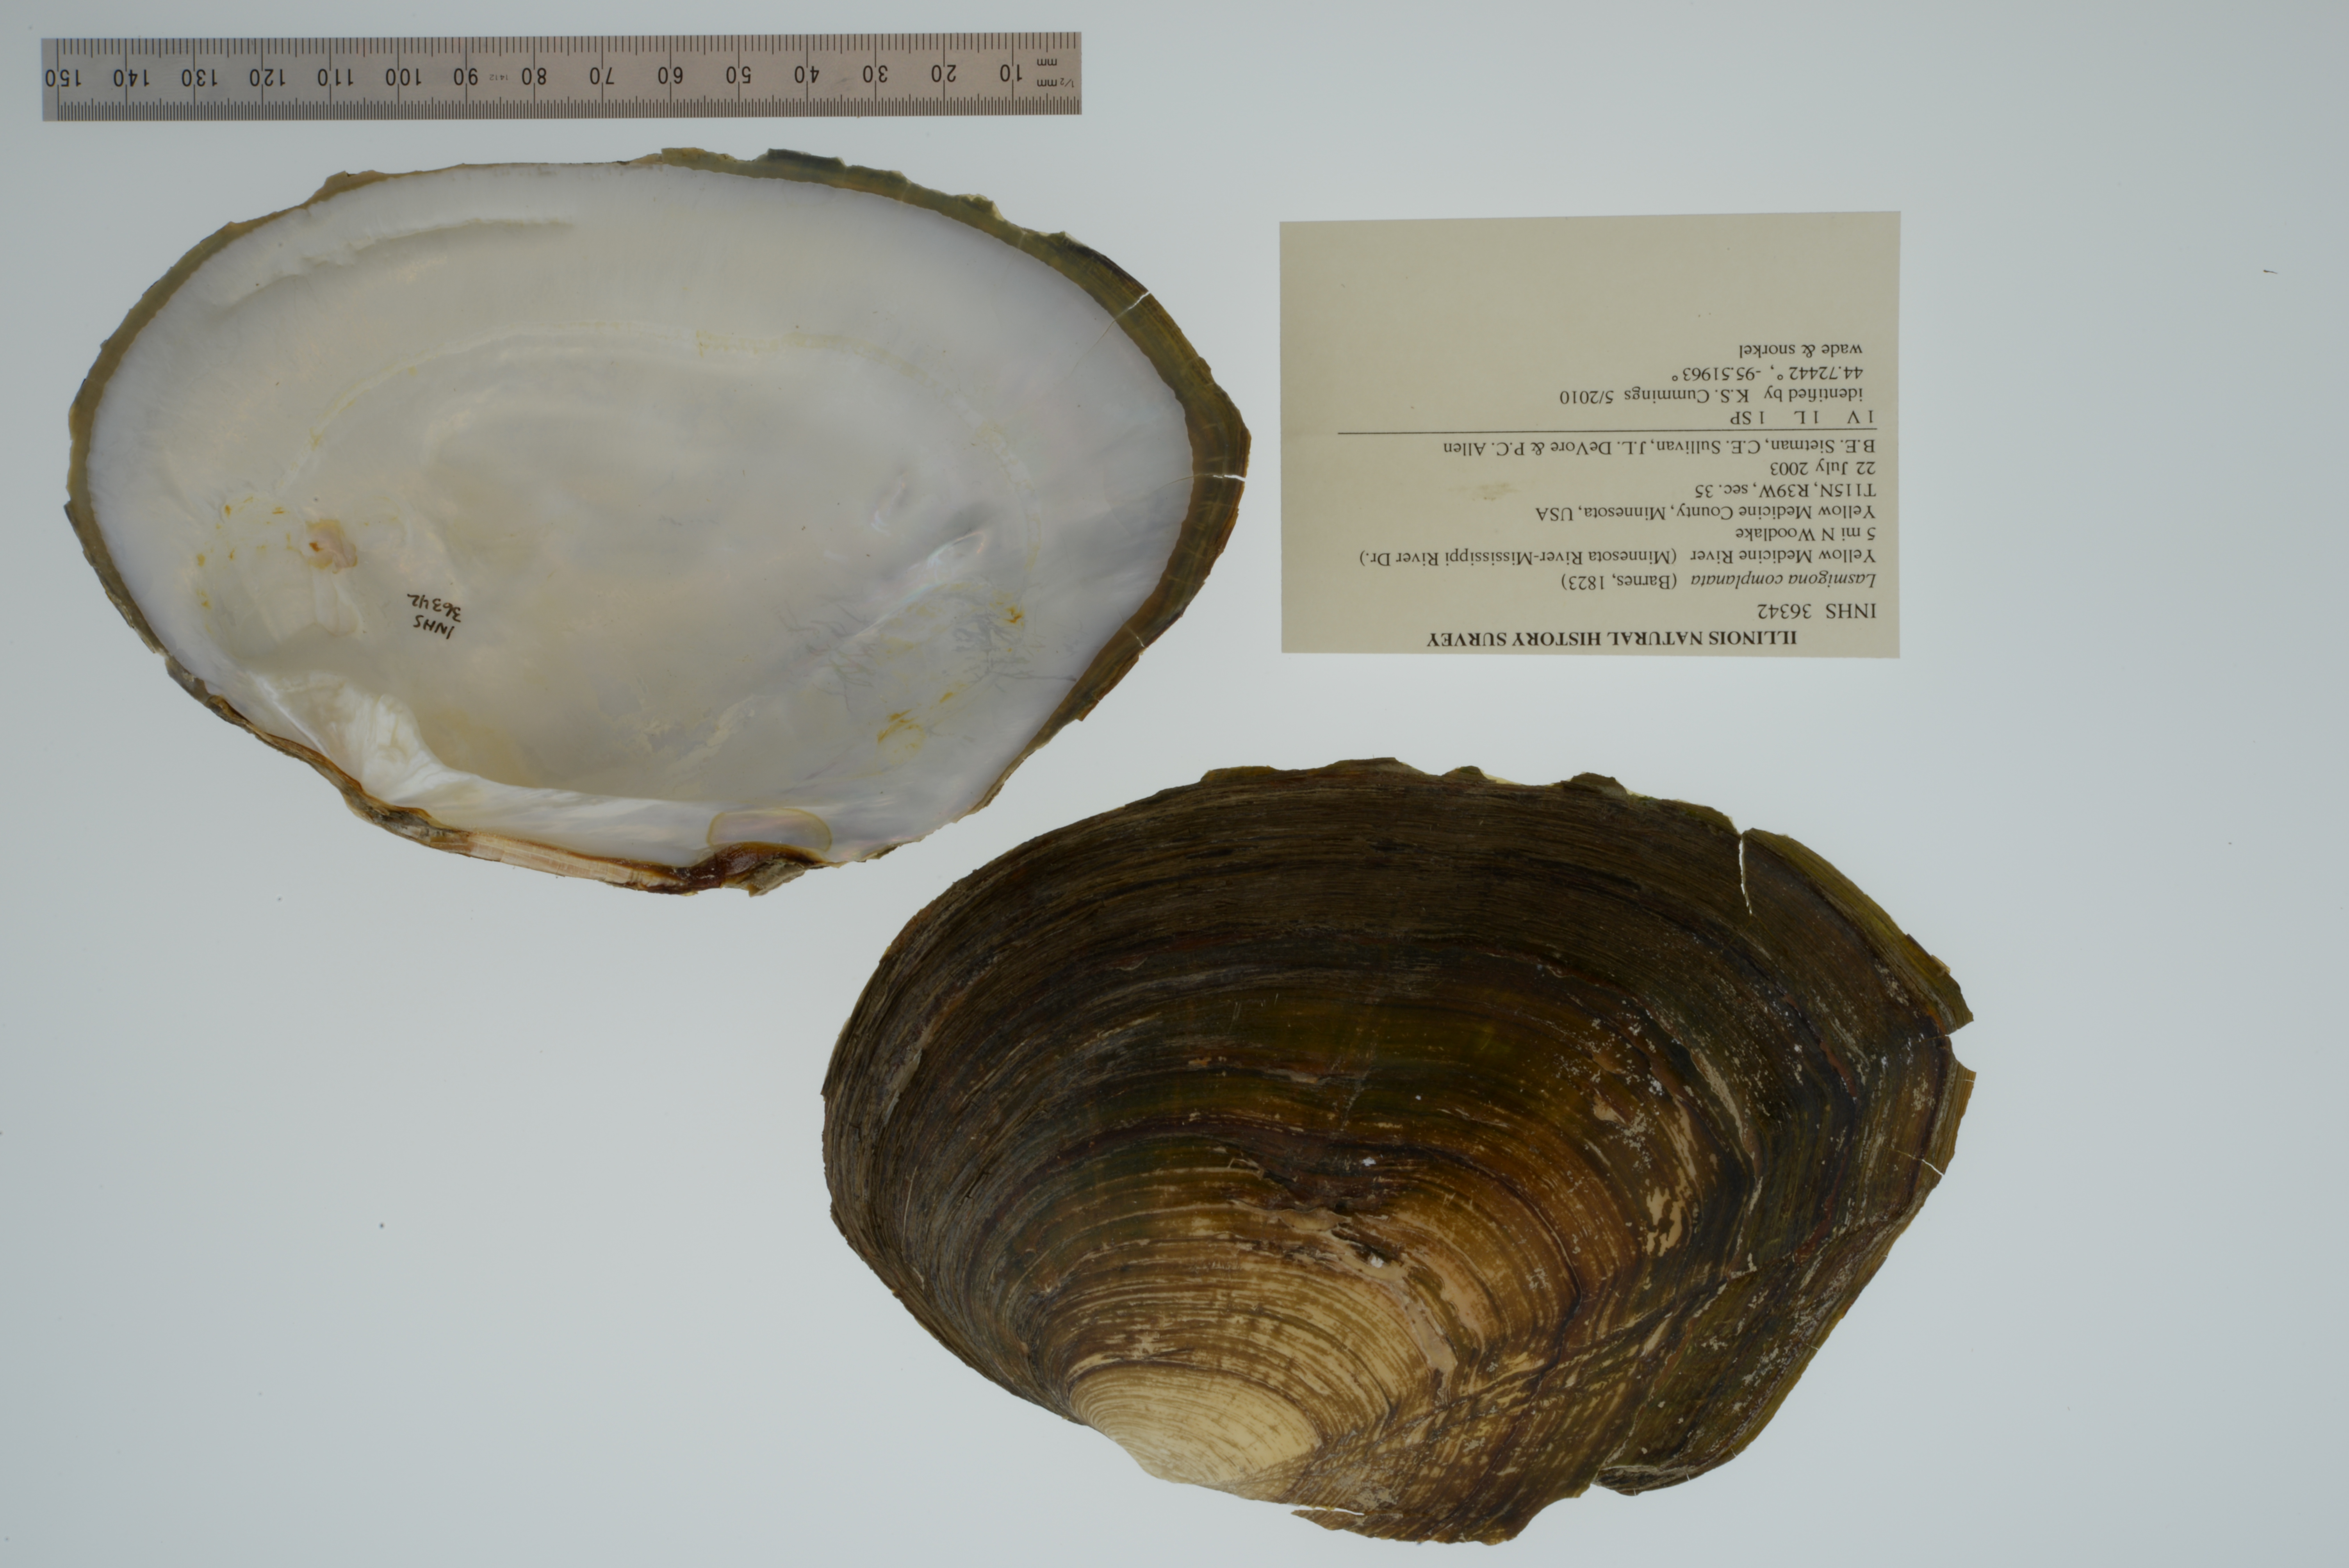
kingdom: Animalia
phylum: Mollusca
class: Bivalvia
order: Unionida
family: Unionidae
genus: Lasmigona
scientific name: Lasmigona complanata
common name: White heelsplitter
